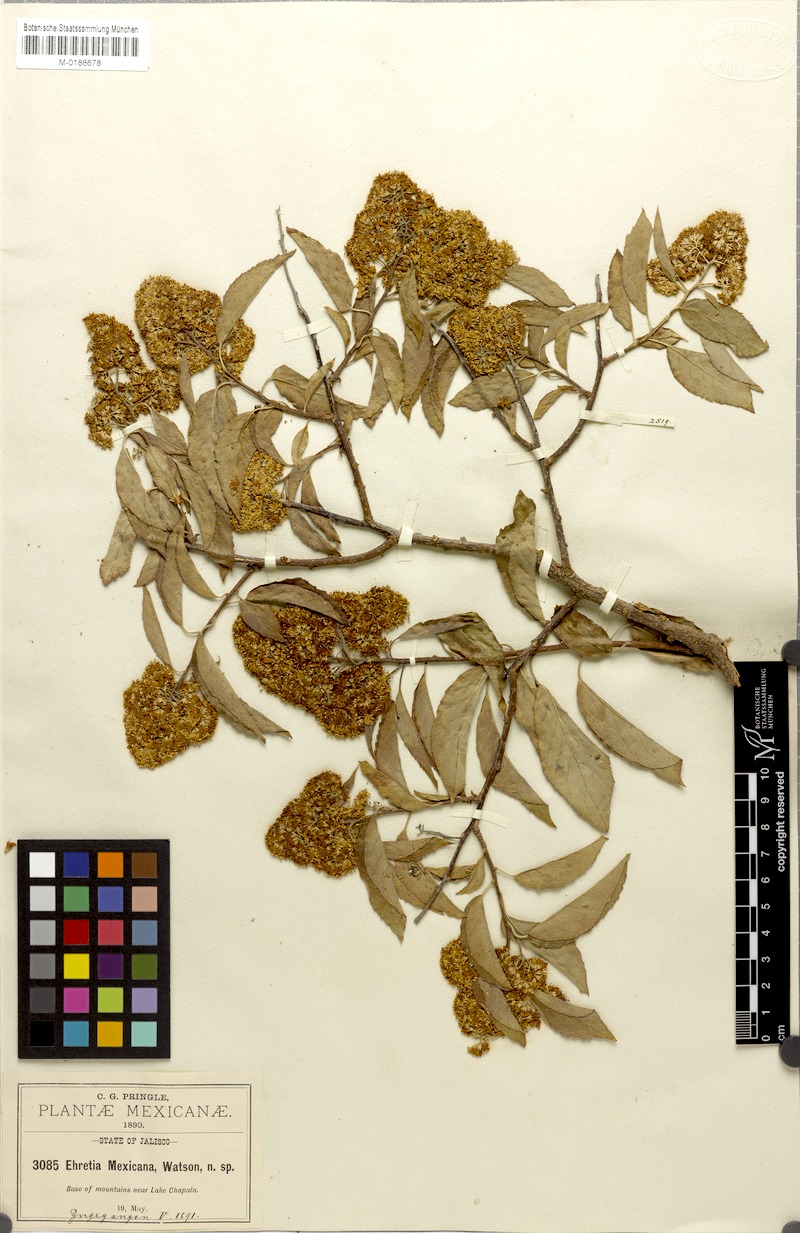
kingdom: Plantae
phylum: Tracheophyta
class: Magnoliopsida
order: Boraginales
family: Ehretiaceae
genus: Ehretia
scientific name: Ehretia latifolia
